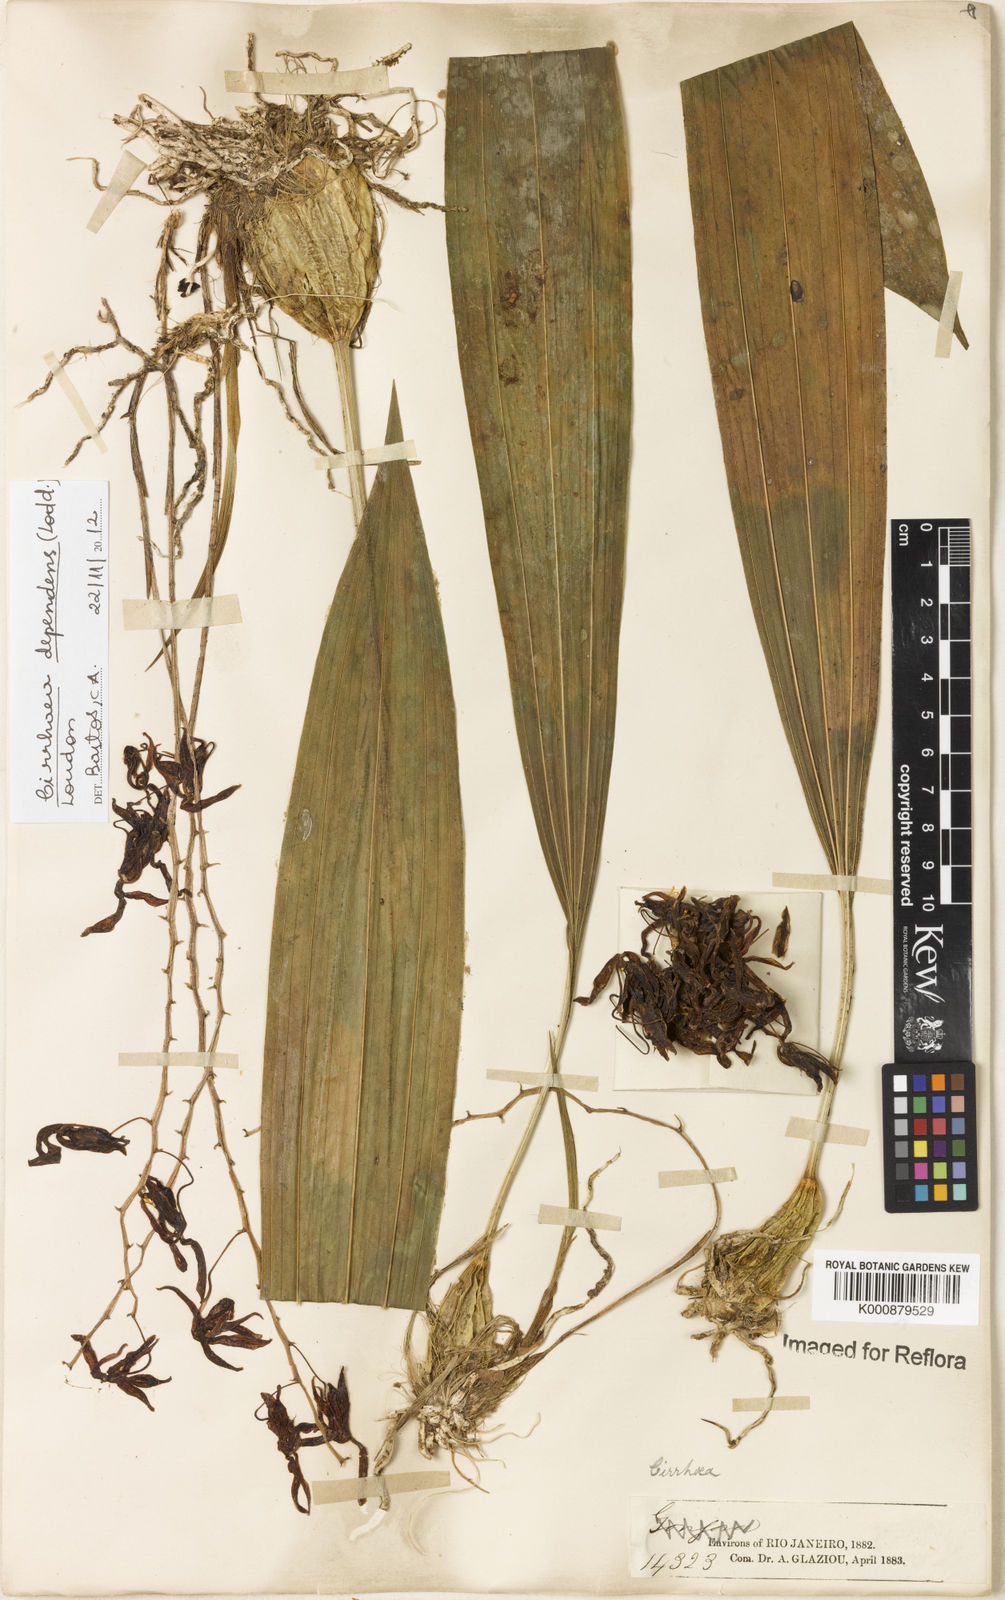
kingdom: Plantae
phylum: Tracheophyta
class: Liliopsida
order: Asparagales
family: Orchidaceae
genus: Cirrhaea
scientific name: Cirrhaea
